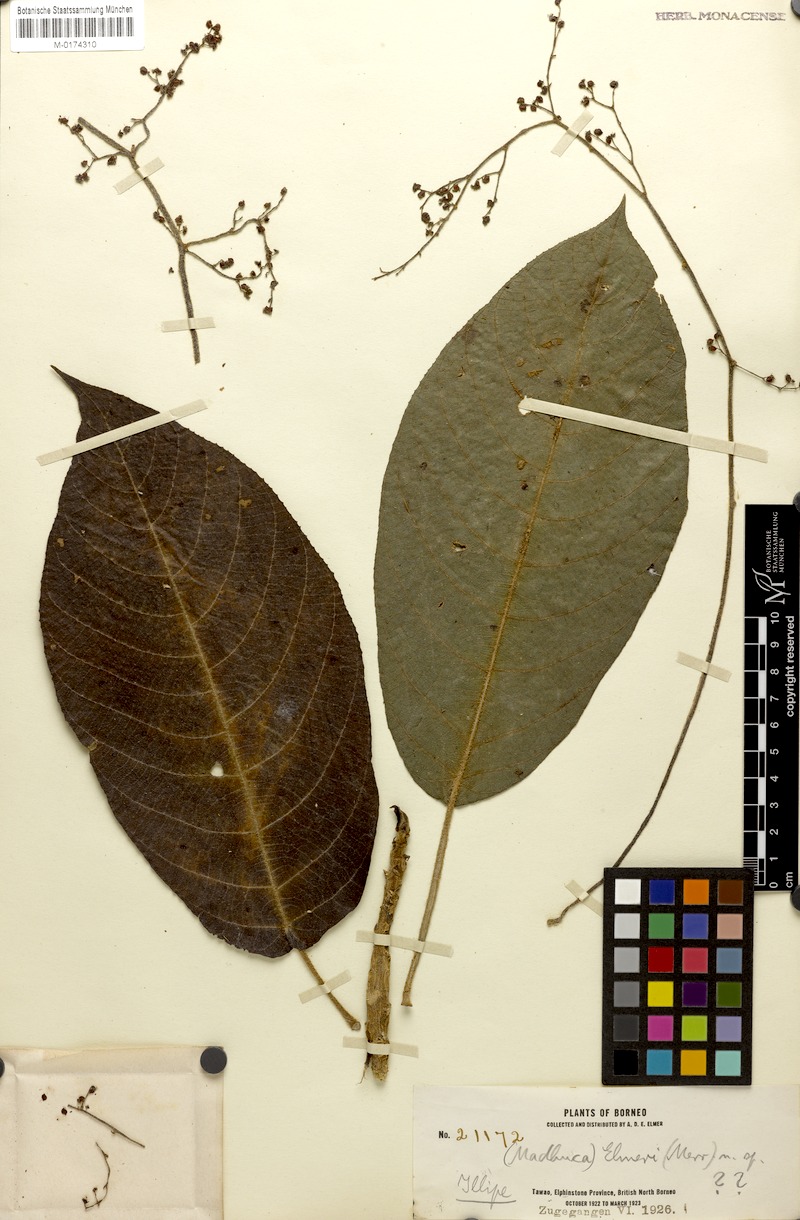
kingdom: Plantae
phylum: Tracheophyta
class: Magnoliopsida
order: Ericales
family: Sapotaceae
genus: Madhuca
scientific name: Madhuca elmeri
